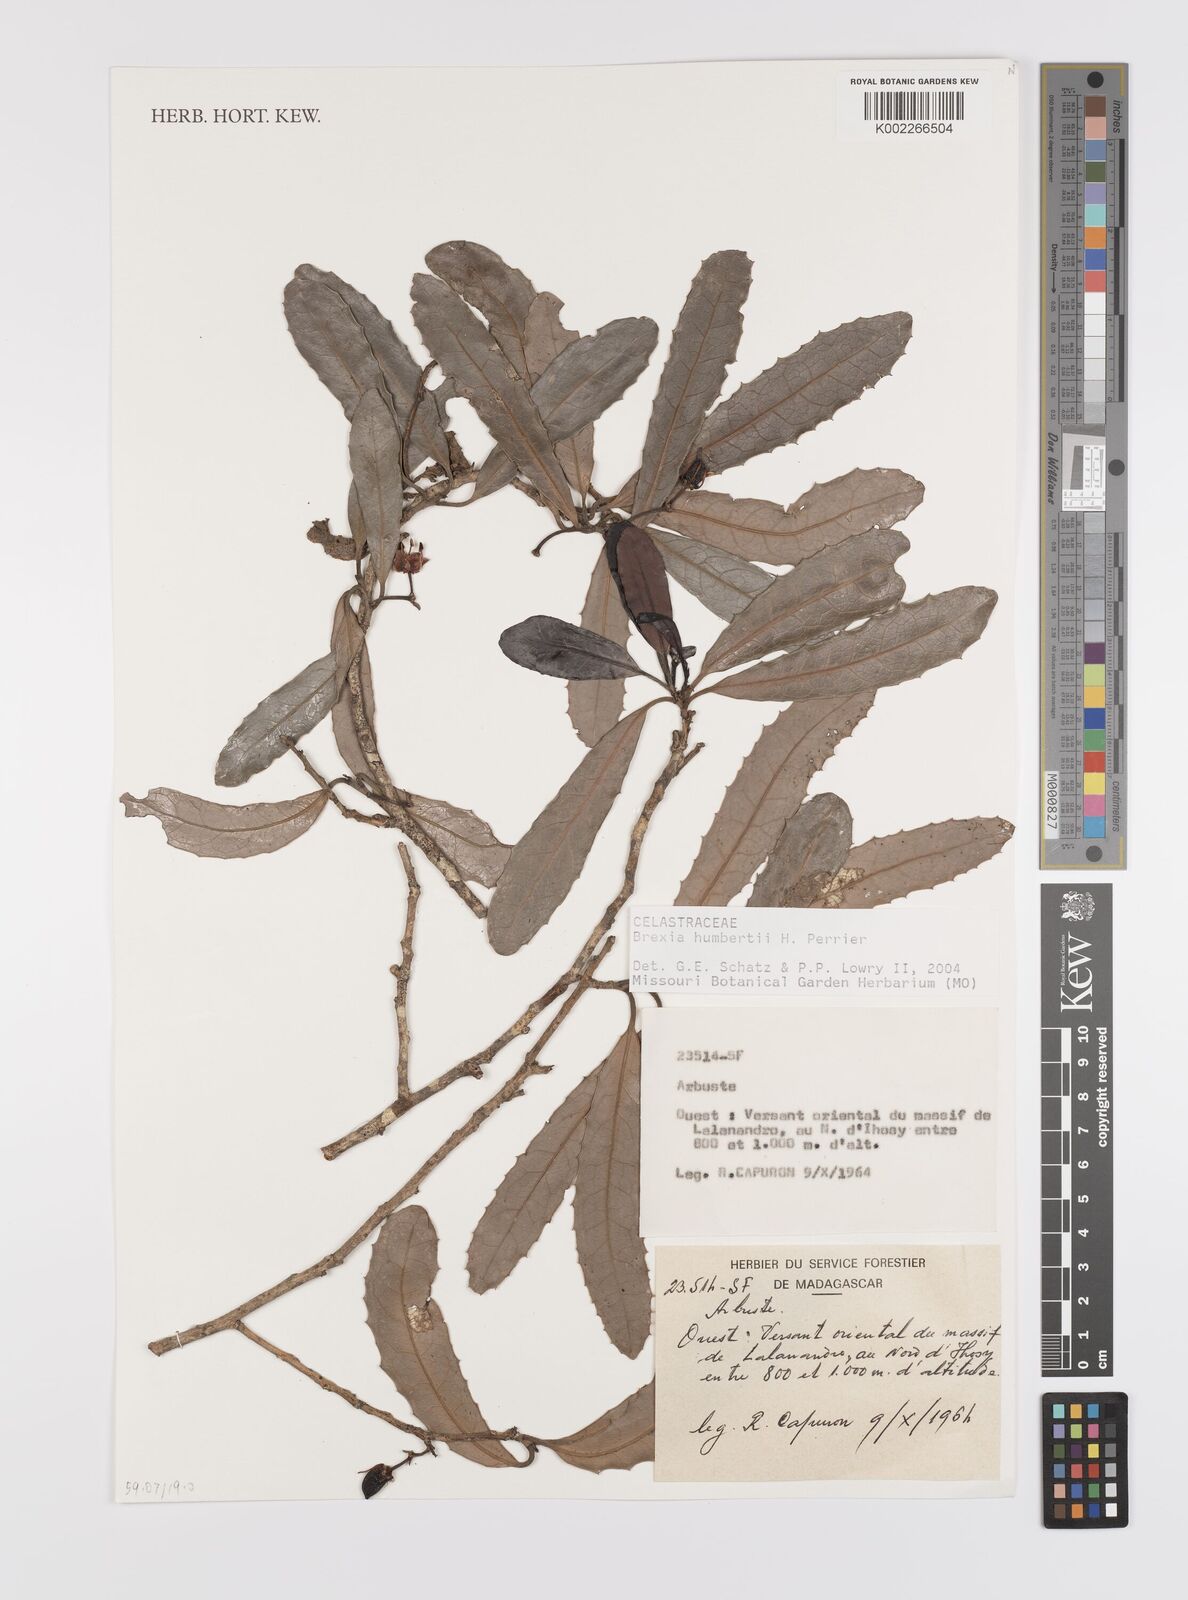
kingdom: Plantae
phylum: Tracheophyta
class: Magnoliopsida
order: Celastrales
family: Celastraceae
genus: Brexia
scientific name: Brexia humbertii
